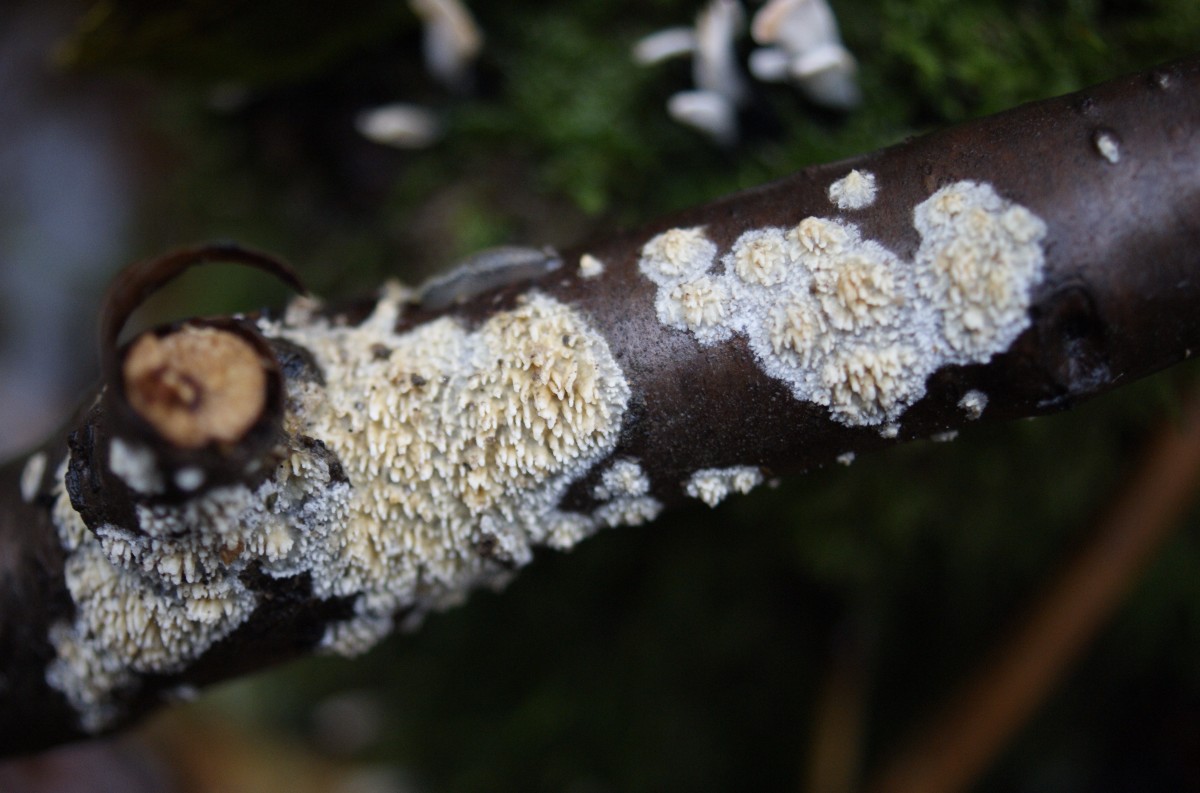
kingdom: Fungi
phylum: Basidiomycota
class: Agaricomycetes
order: Hymenochaetales
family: Schizoporaceae
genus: Xylodon
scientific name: Xylodon radula
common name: grovtandet kalkskind
